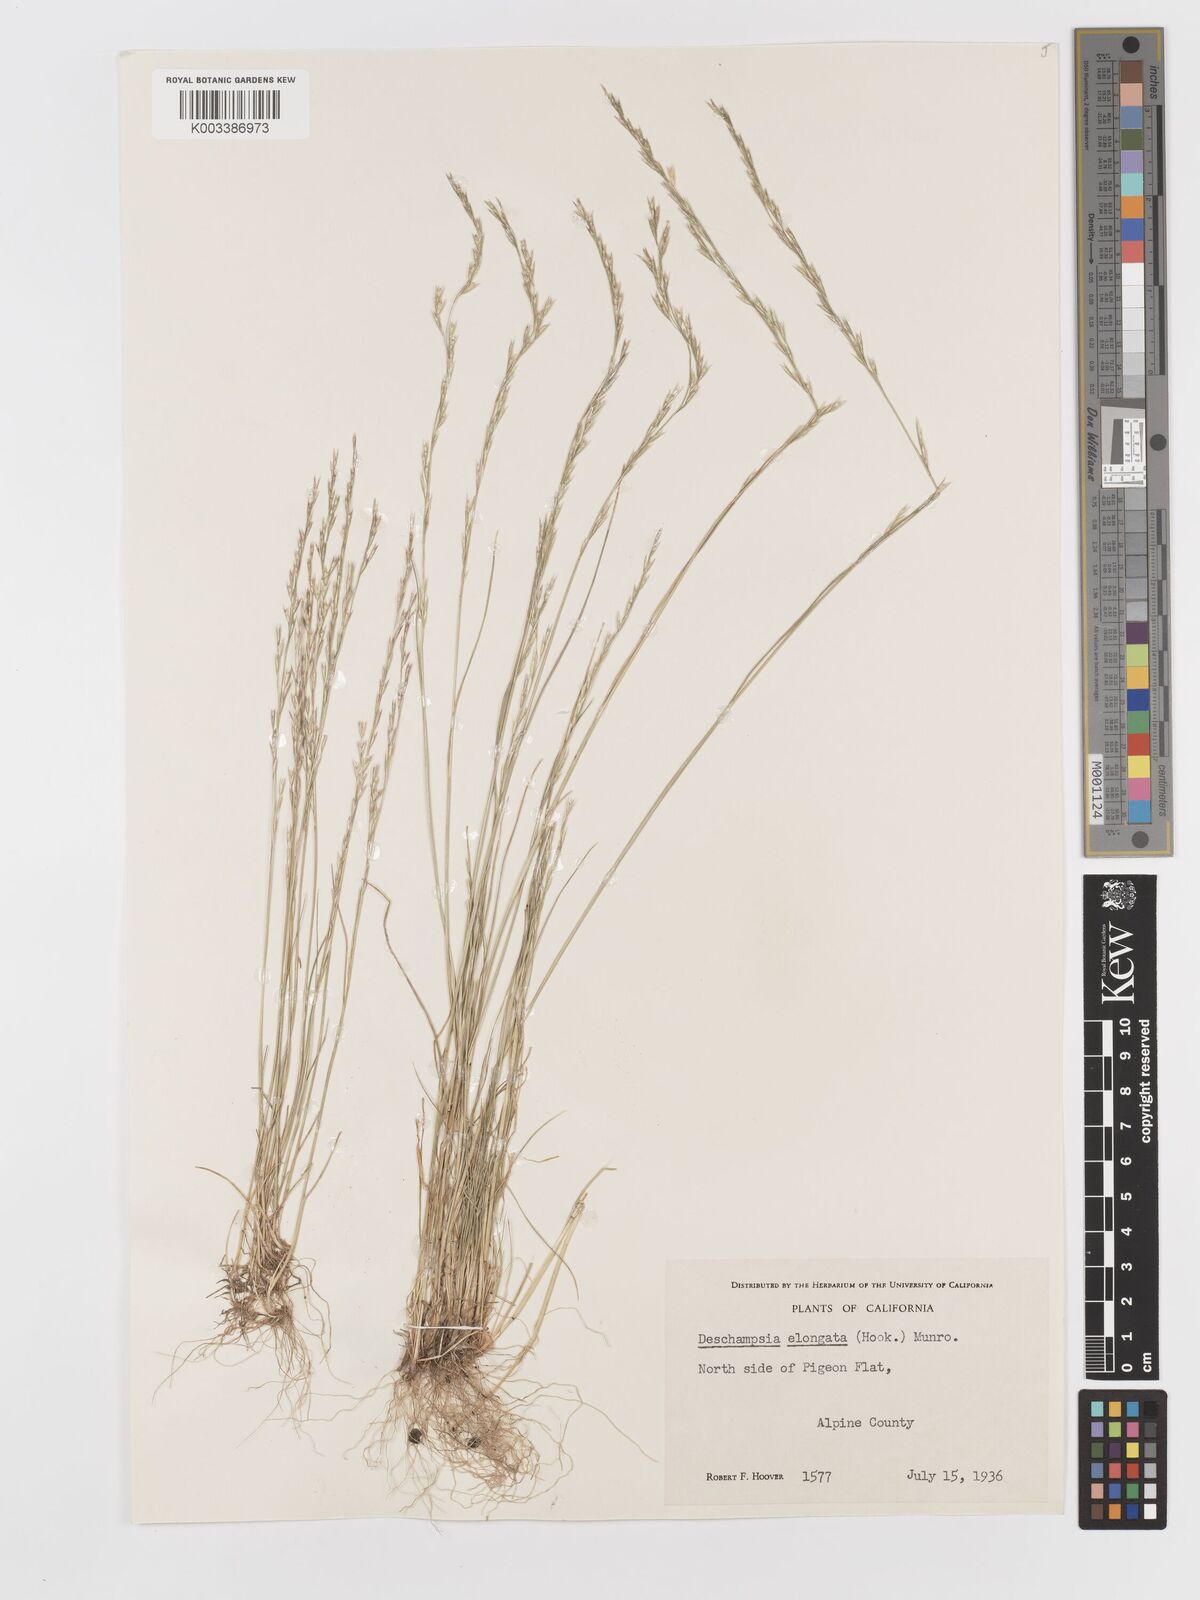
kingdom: Plantae
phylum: Tracheophyta
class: Liliopsida
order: Poales
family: Poaceae
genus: Deschampsia
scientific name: Deschampsia elongata
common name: Slender hairgrass
